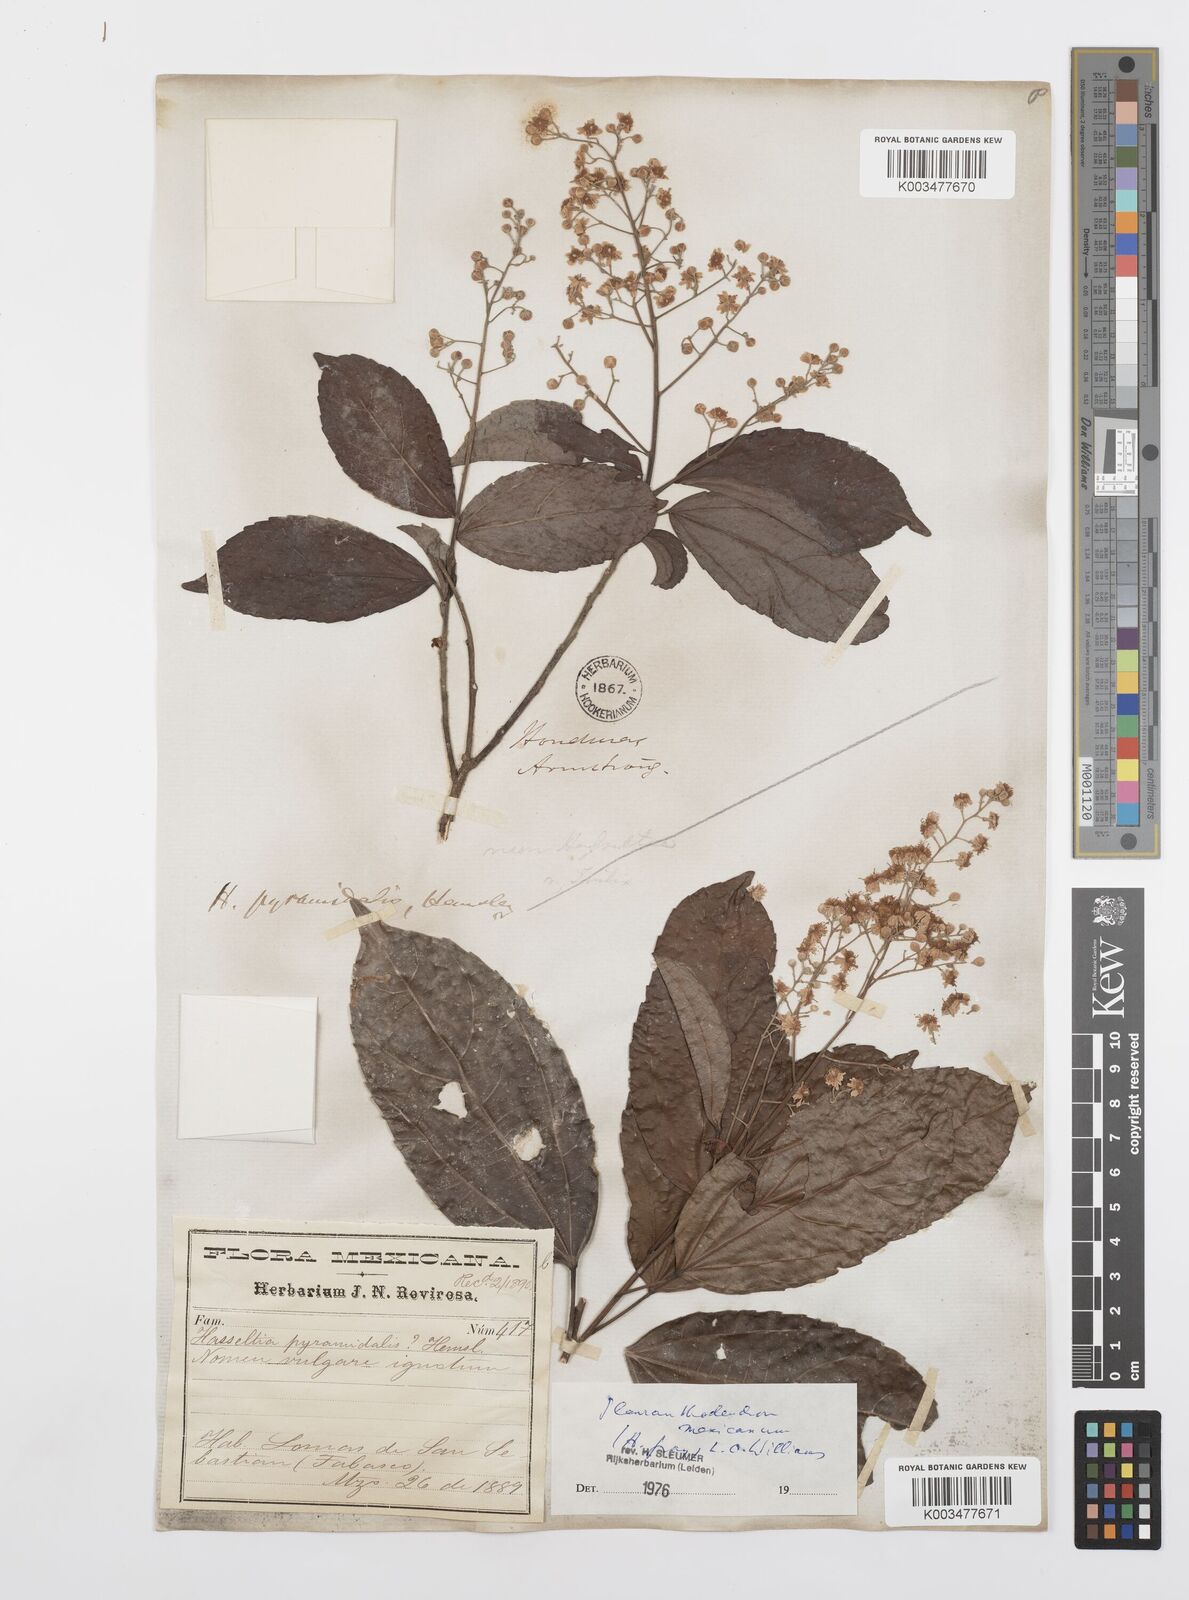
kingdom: Plantae
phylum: Tracheophyta
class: Magnoliopsida
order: Malpighiales
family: Salicaceae
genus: Pleuranthodendron
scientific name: Pleuranthodendron lindenii
